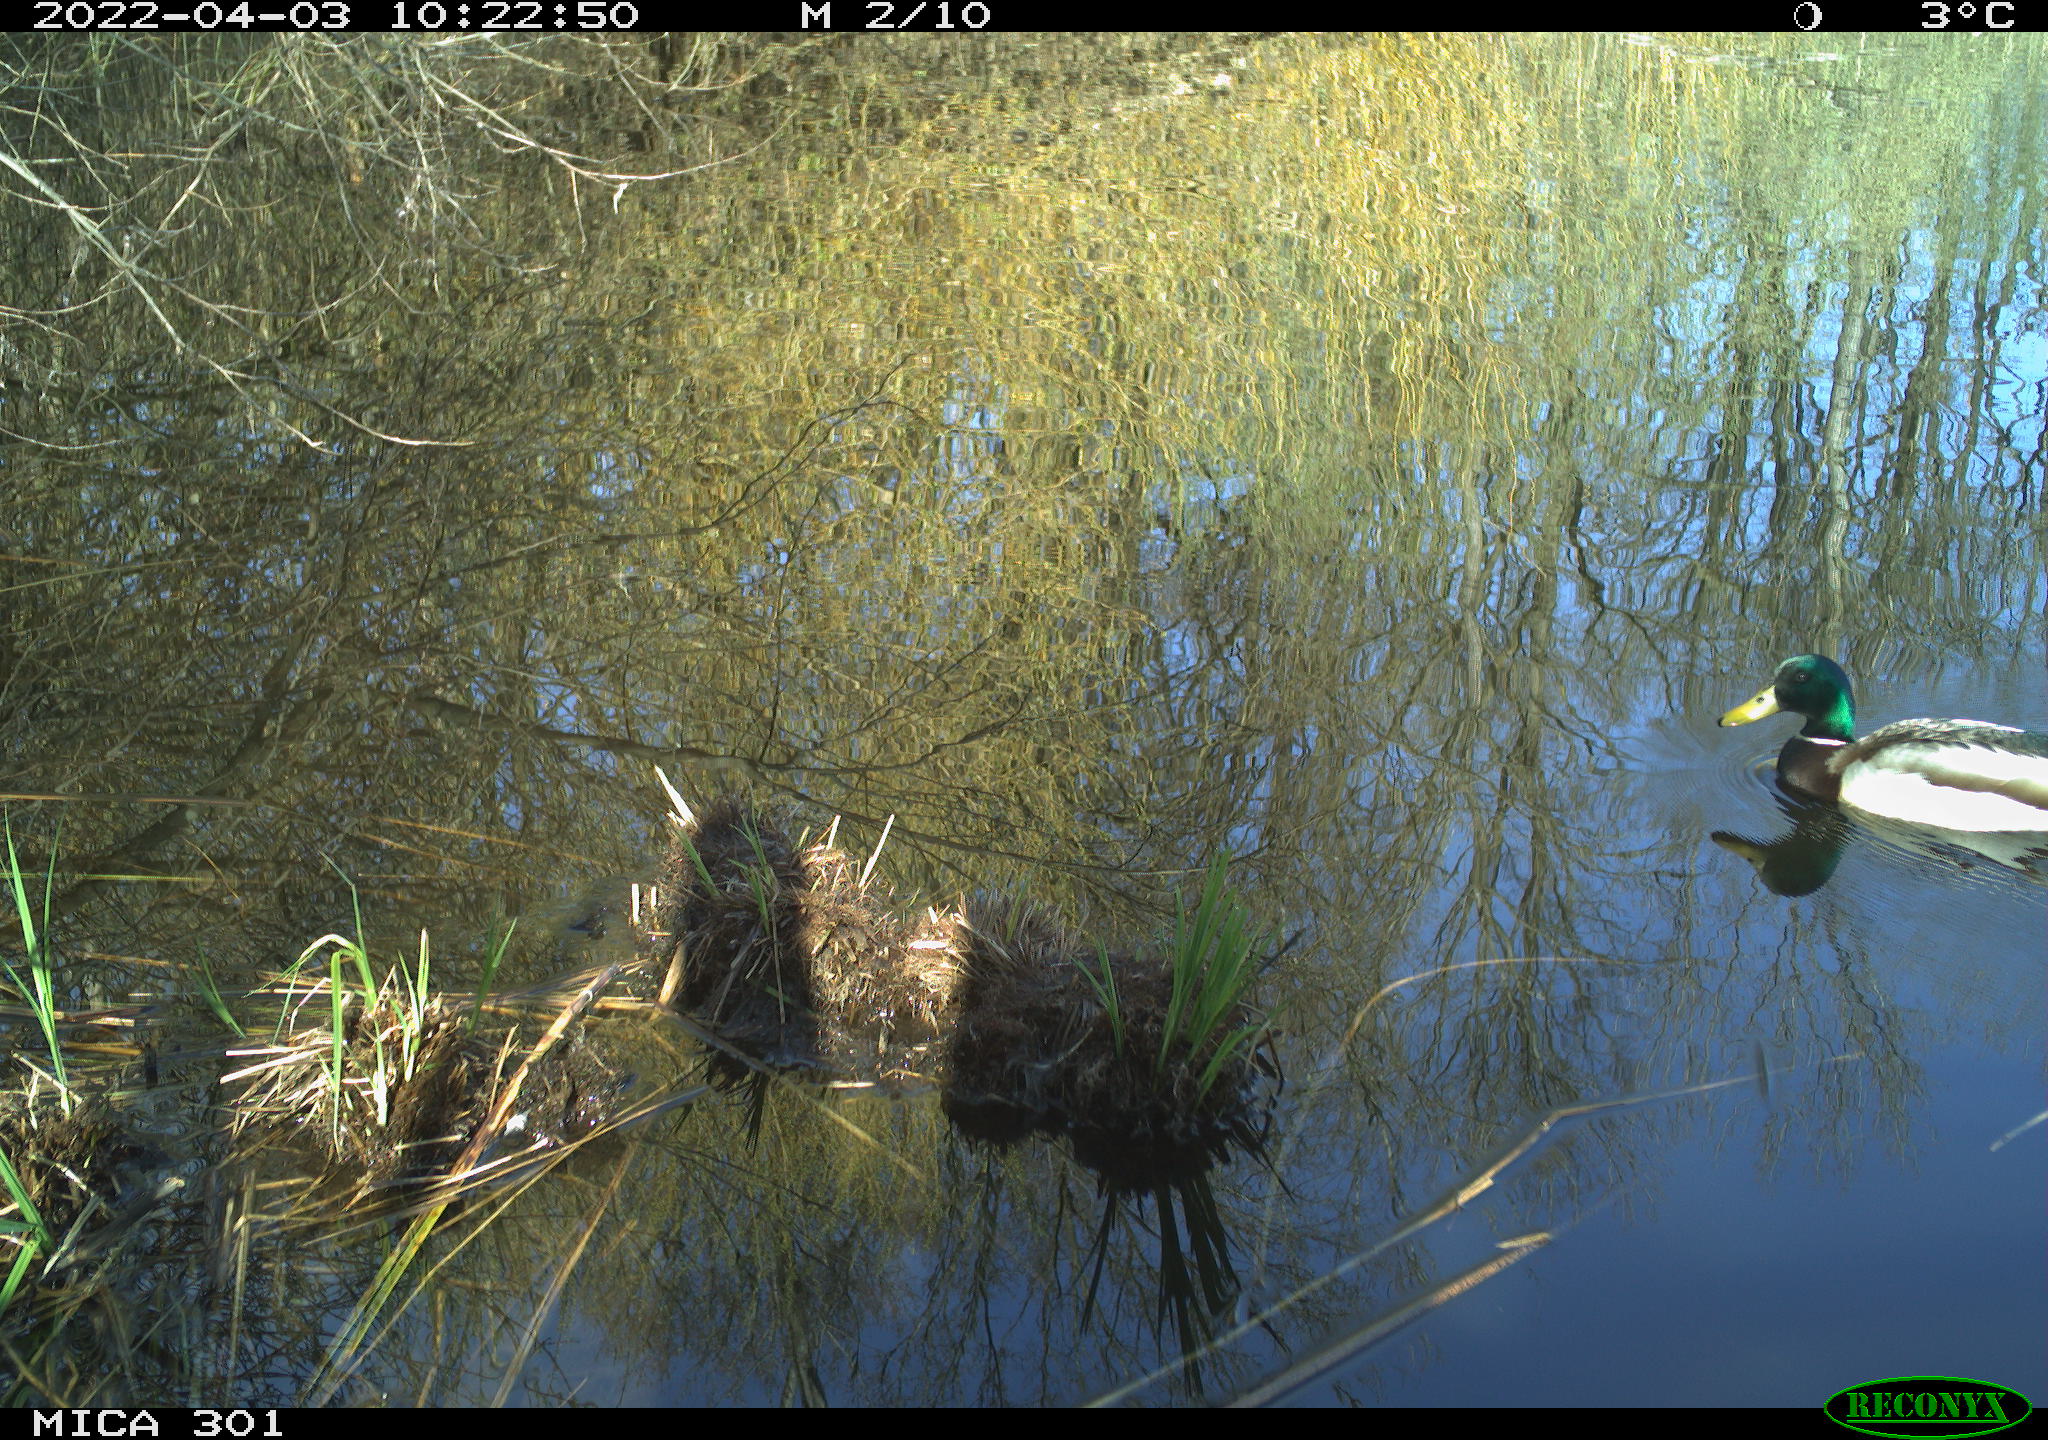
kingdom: Animalia
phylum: Chordata
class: Aves
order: Anseriformes
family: Anatidae
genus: Anas
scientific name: Anas platyrhynchos
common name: Mallard
